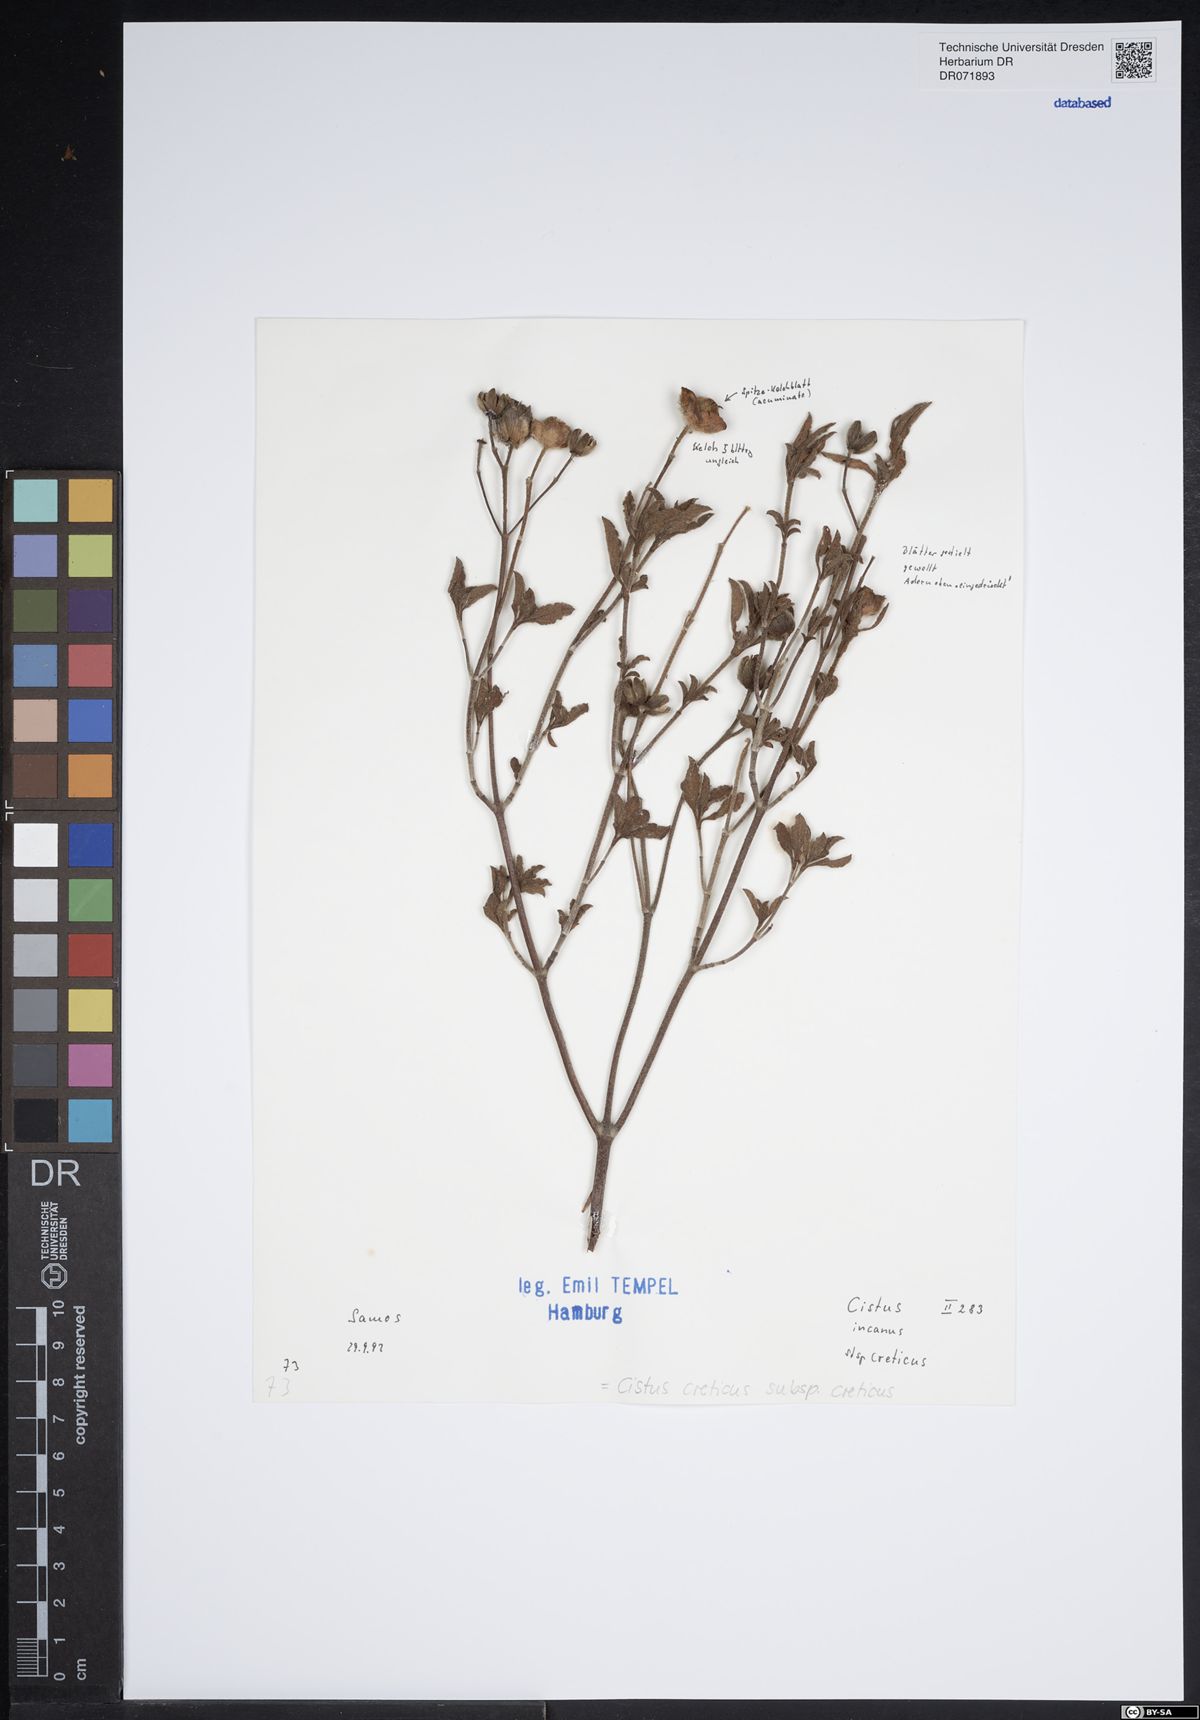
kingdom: Plantae
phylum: Tracheophyta
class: Magnoliopsida
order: Malvales
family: Cistaceae
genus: Cistus
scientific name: Cistus creticus
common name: Cretan rockrose
